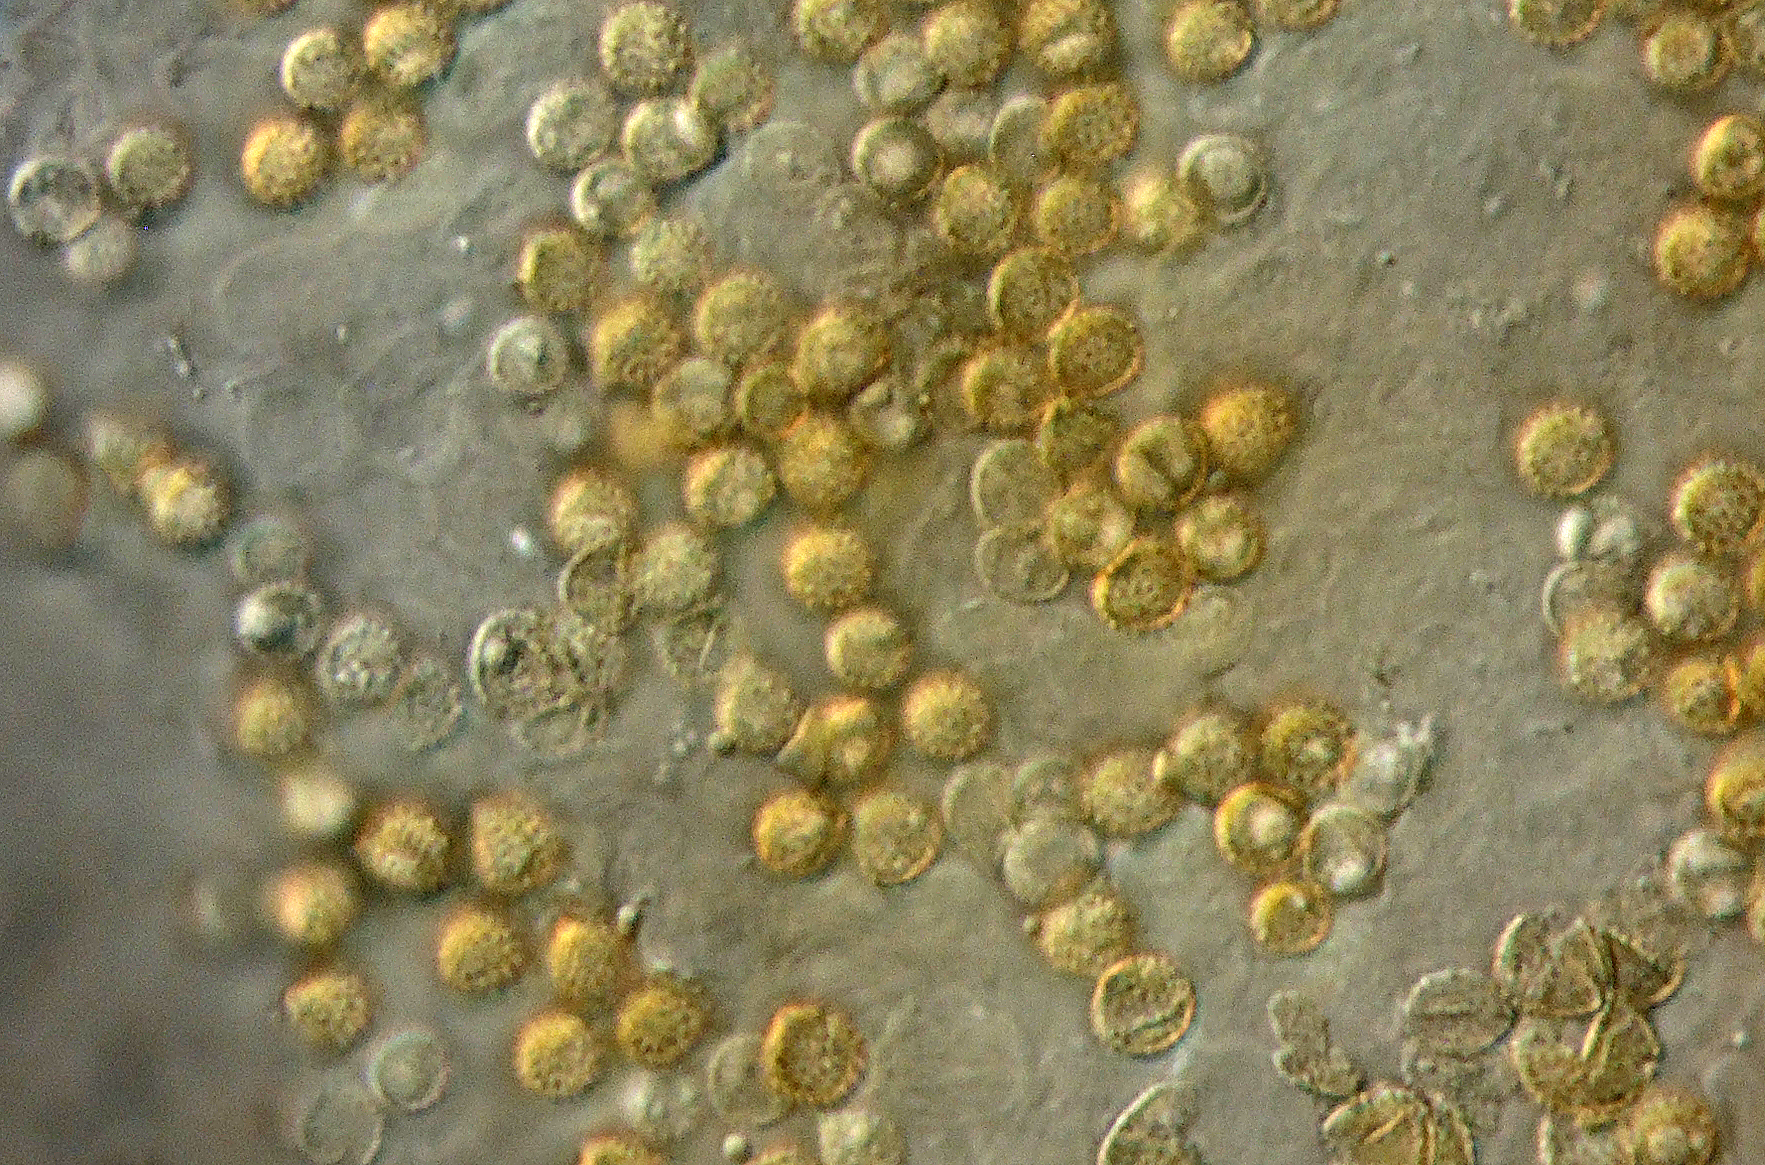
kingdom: Fungi
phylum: Basidiomycota
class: Agaricomycetes
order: Agaricales
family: Crepidotaceae
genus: Crepidotus
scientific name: Crepidotus applanatus
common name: tvefarvet muslingesvamp
